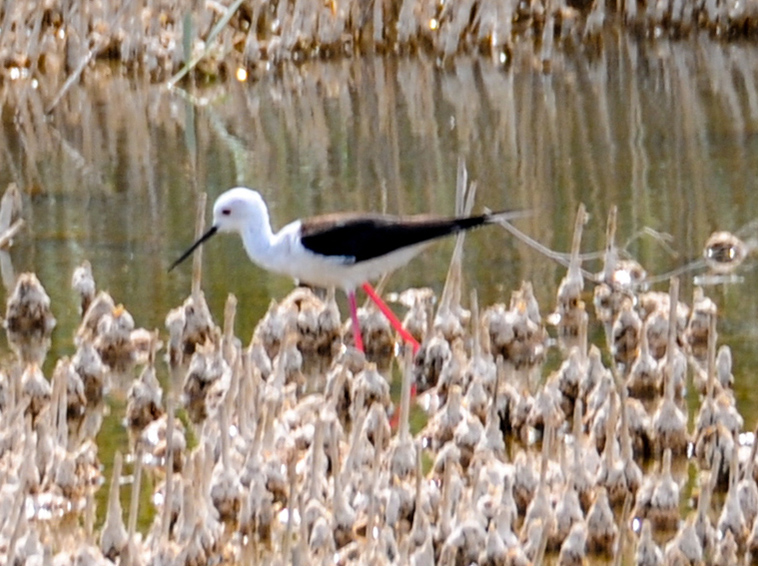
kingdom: Animalia
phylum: Chordata
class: Aves
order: Charadriiformes
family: Recurvirostridae
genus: Himantopus
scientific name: Himantopus himantopus
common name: Black-winged stilt
